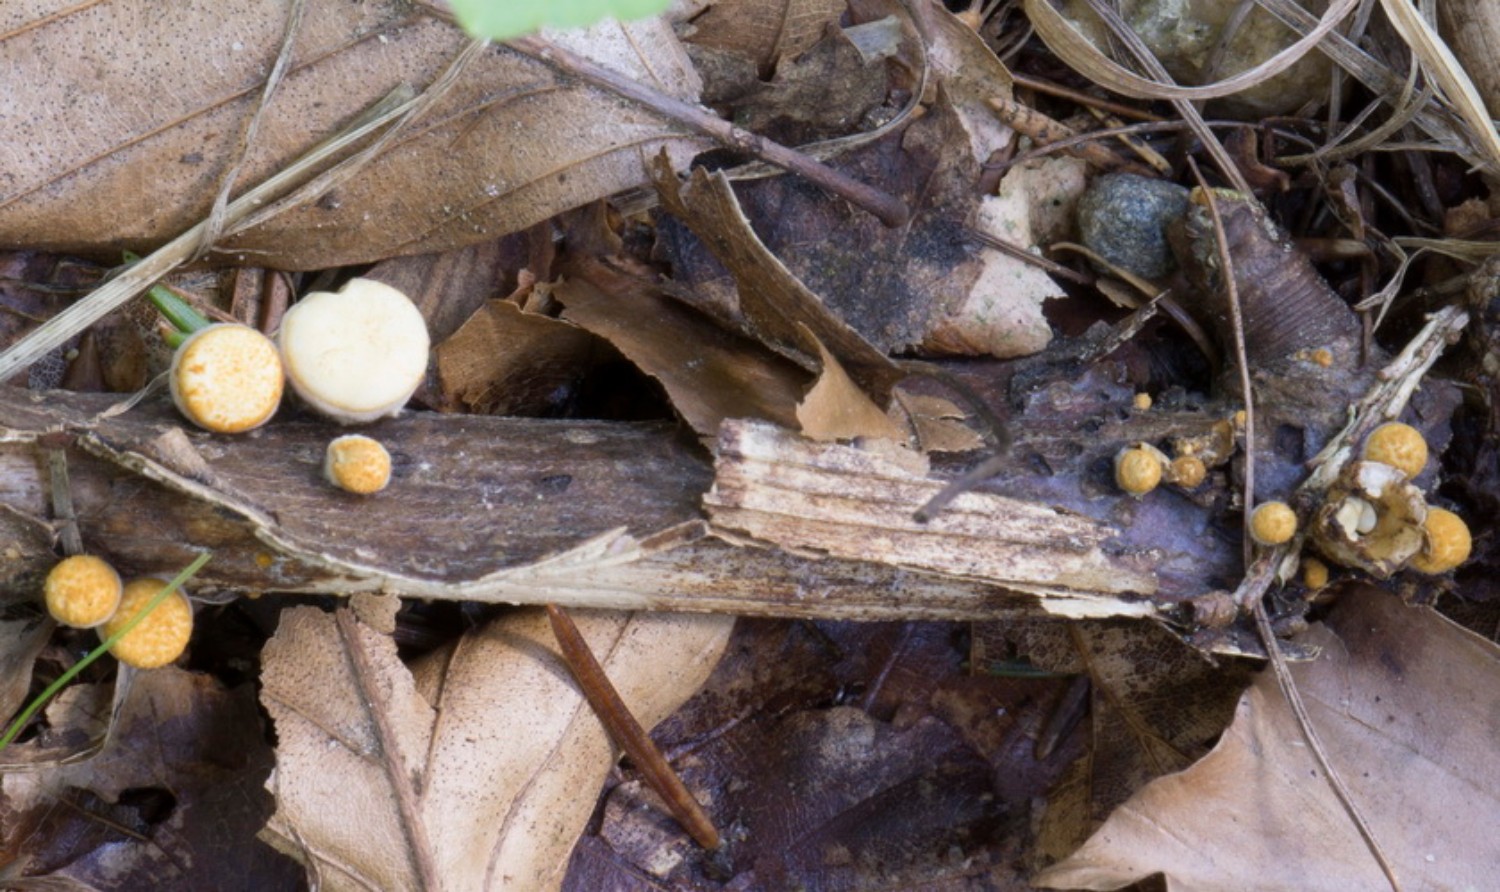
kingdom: Fungi
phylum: Basidiomycota
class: Agaricomycetes
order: Agaricales
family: Nidulariaceae
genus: Crucibulum
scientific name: Crucibulum crucibuliforme
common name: krukkesvamp
